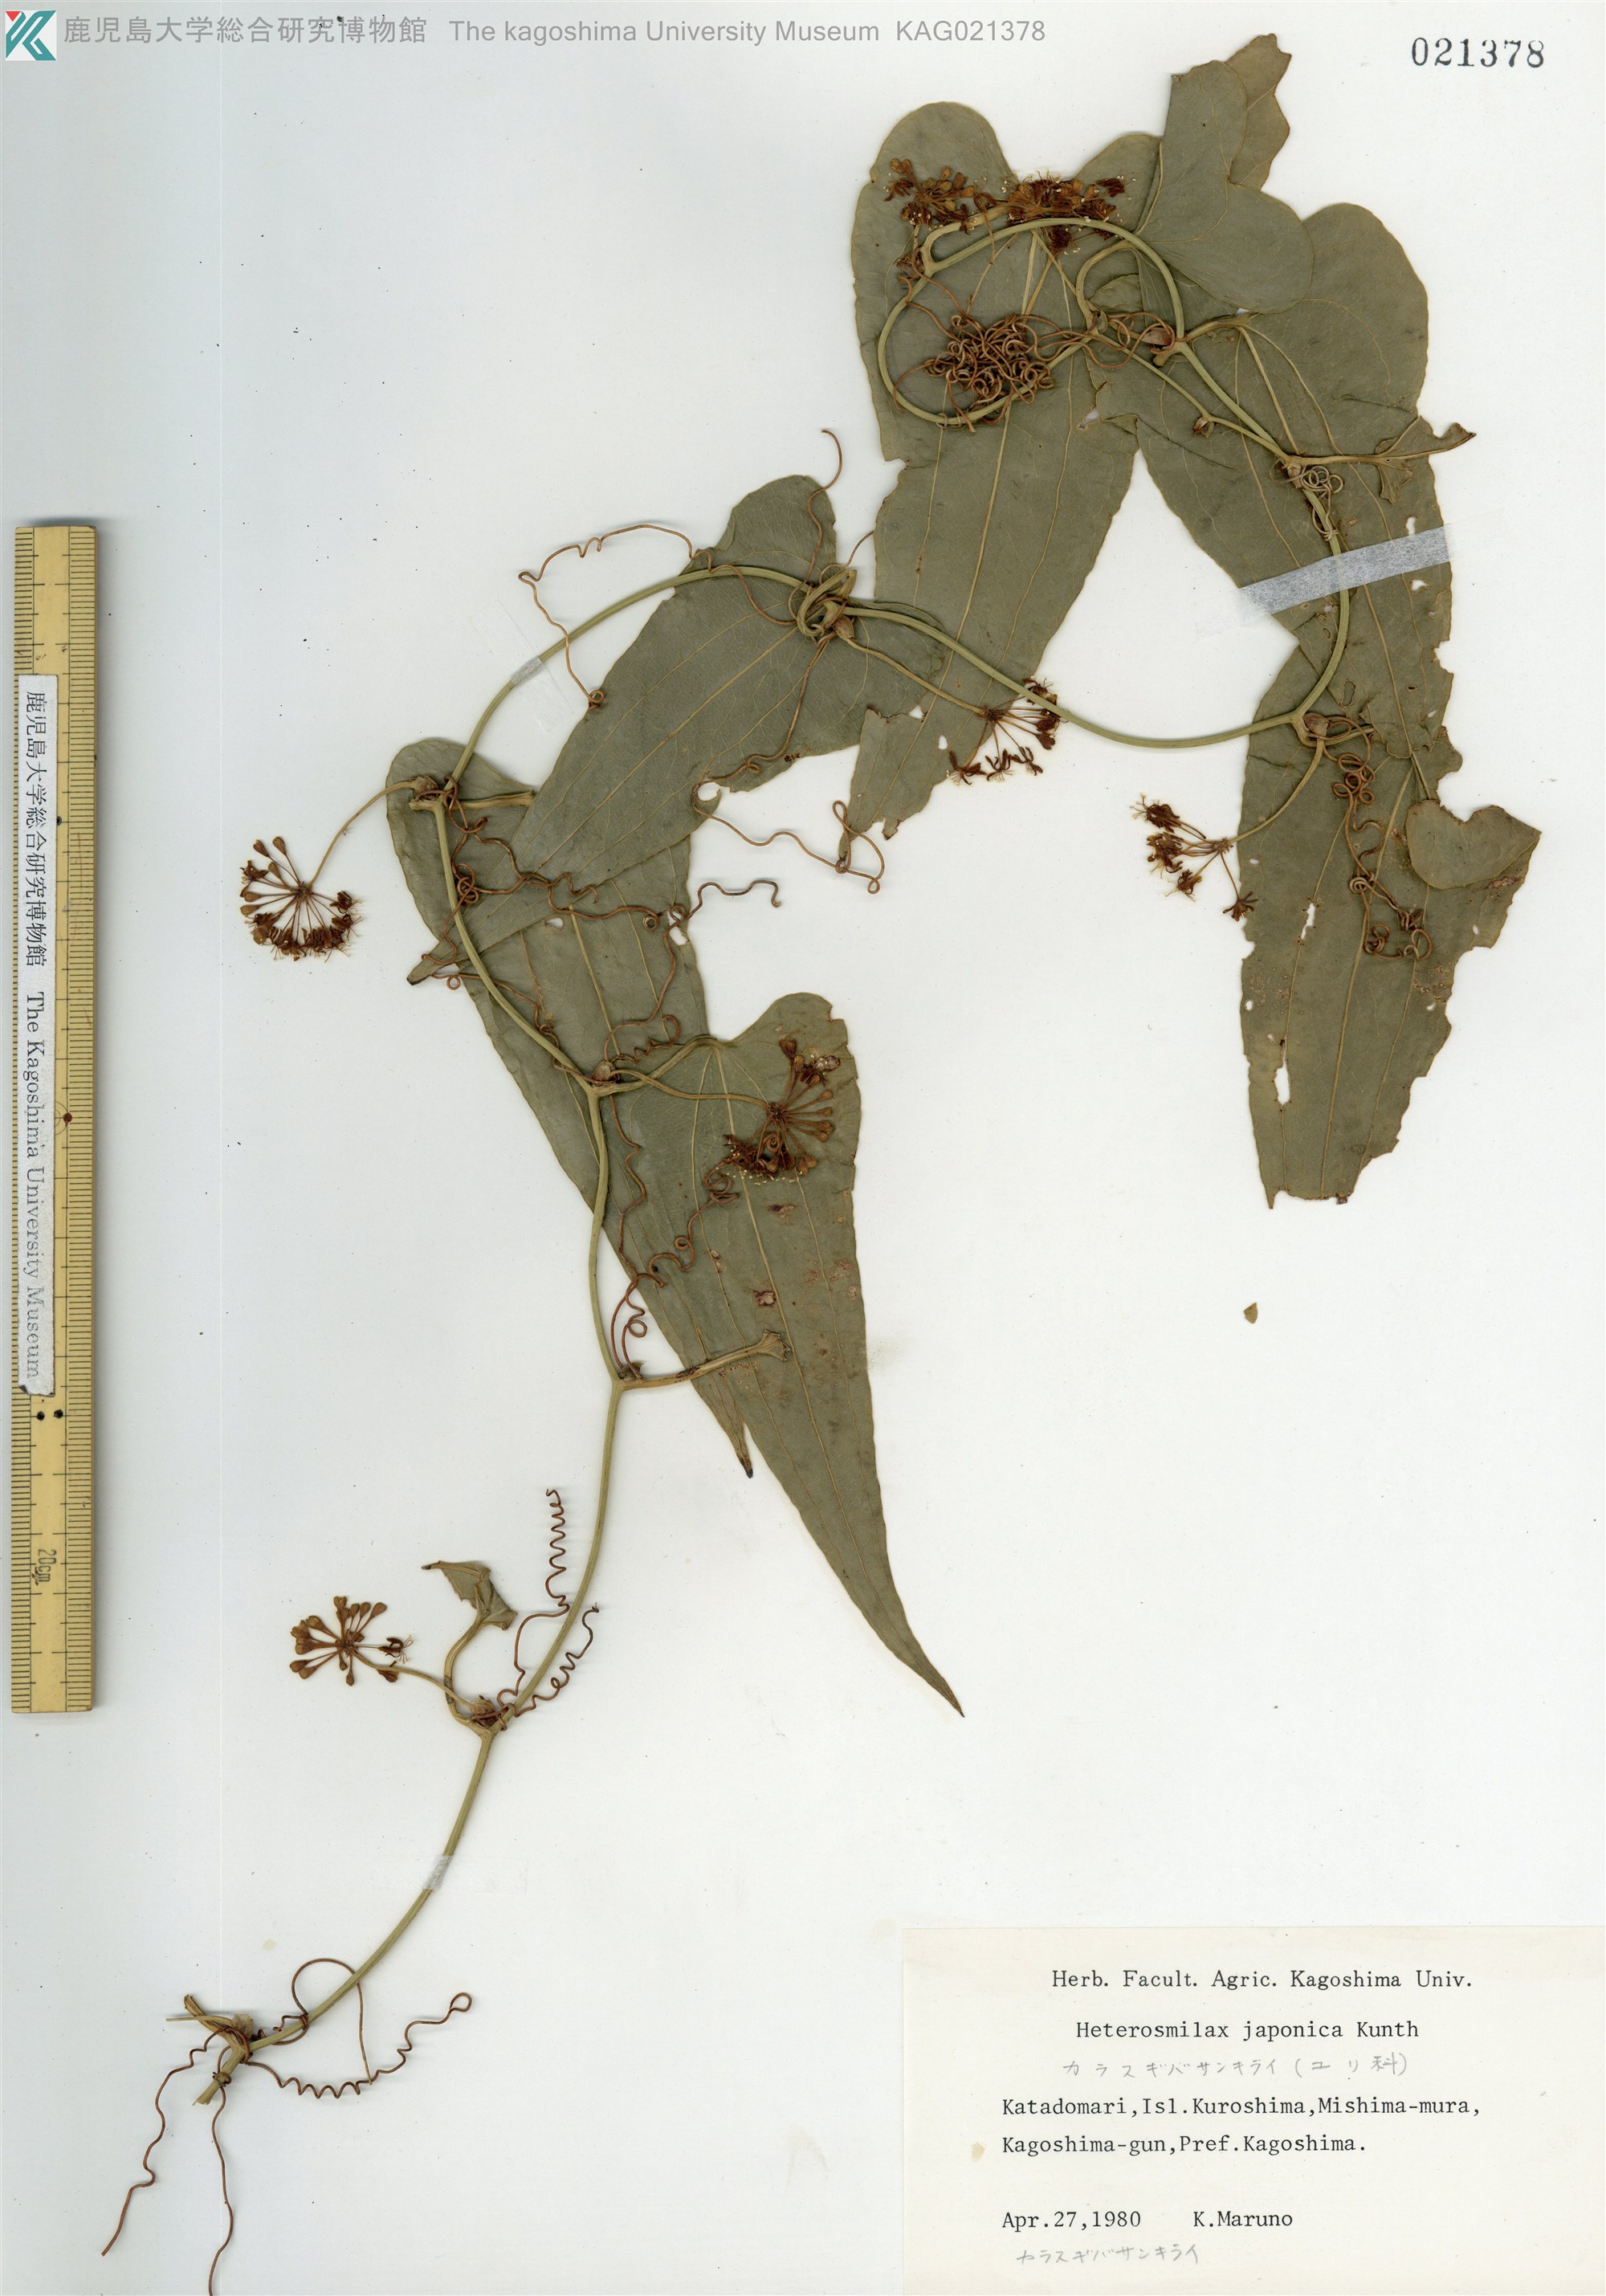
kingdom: Plantae
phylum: Tracheophyta
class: Liliopsida
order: Liliales
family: Smilacaceae
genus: Smilax
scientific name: Smilax insularis
